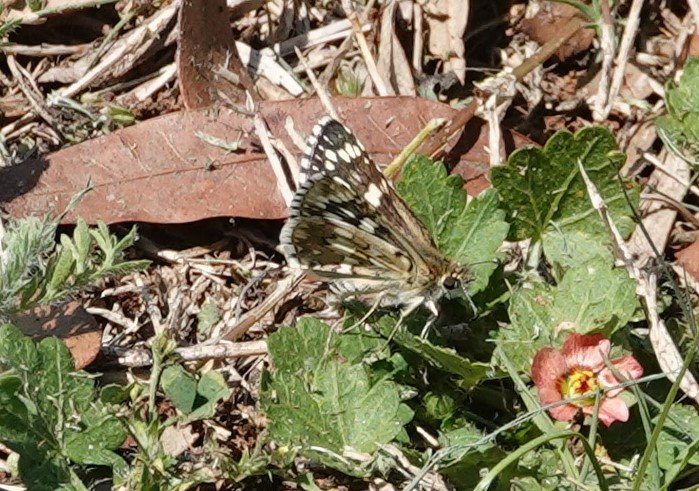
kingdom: Animalia
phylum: Arthropoda
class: Insecta
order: Lepidoptera
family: Hesperiidae
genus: Pyrgus
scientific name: Pyrgus communis
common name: White Checkered-Skipper
